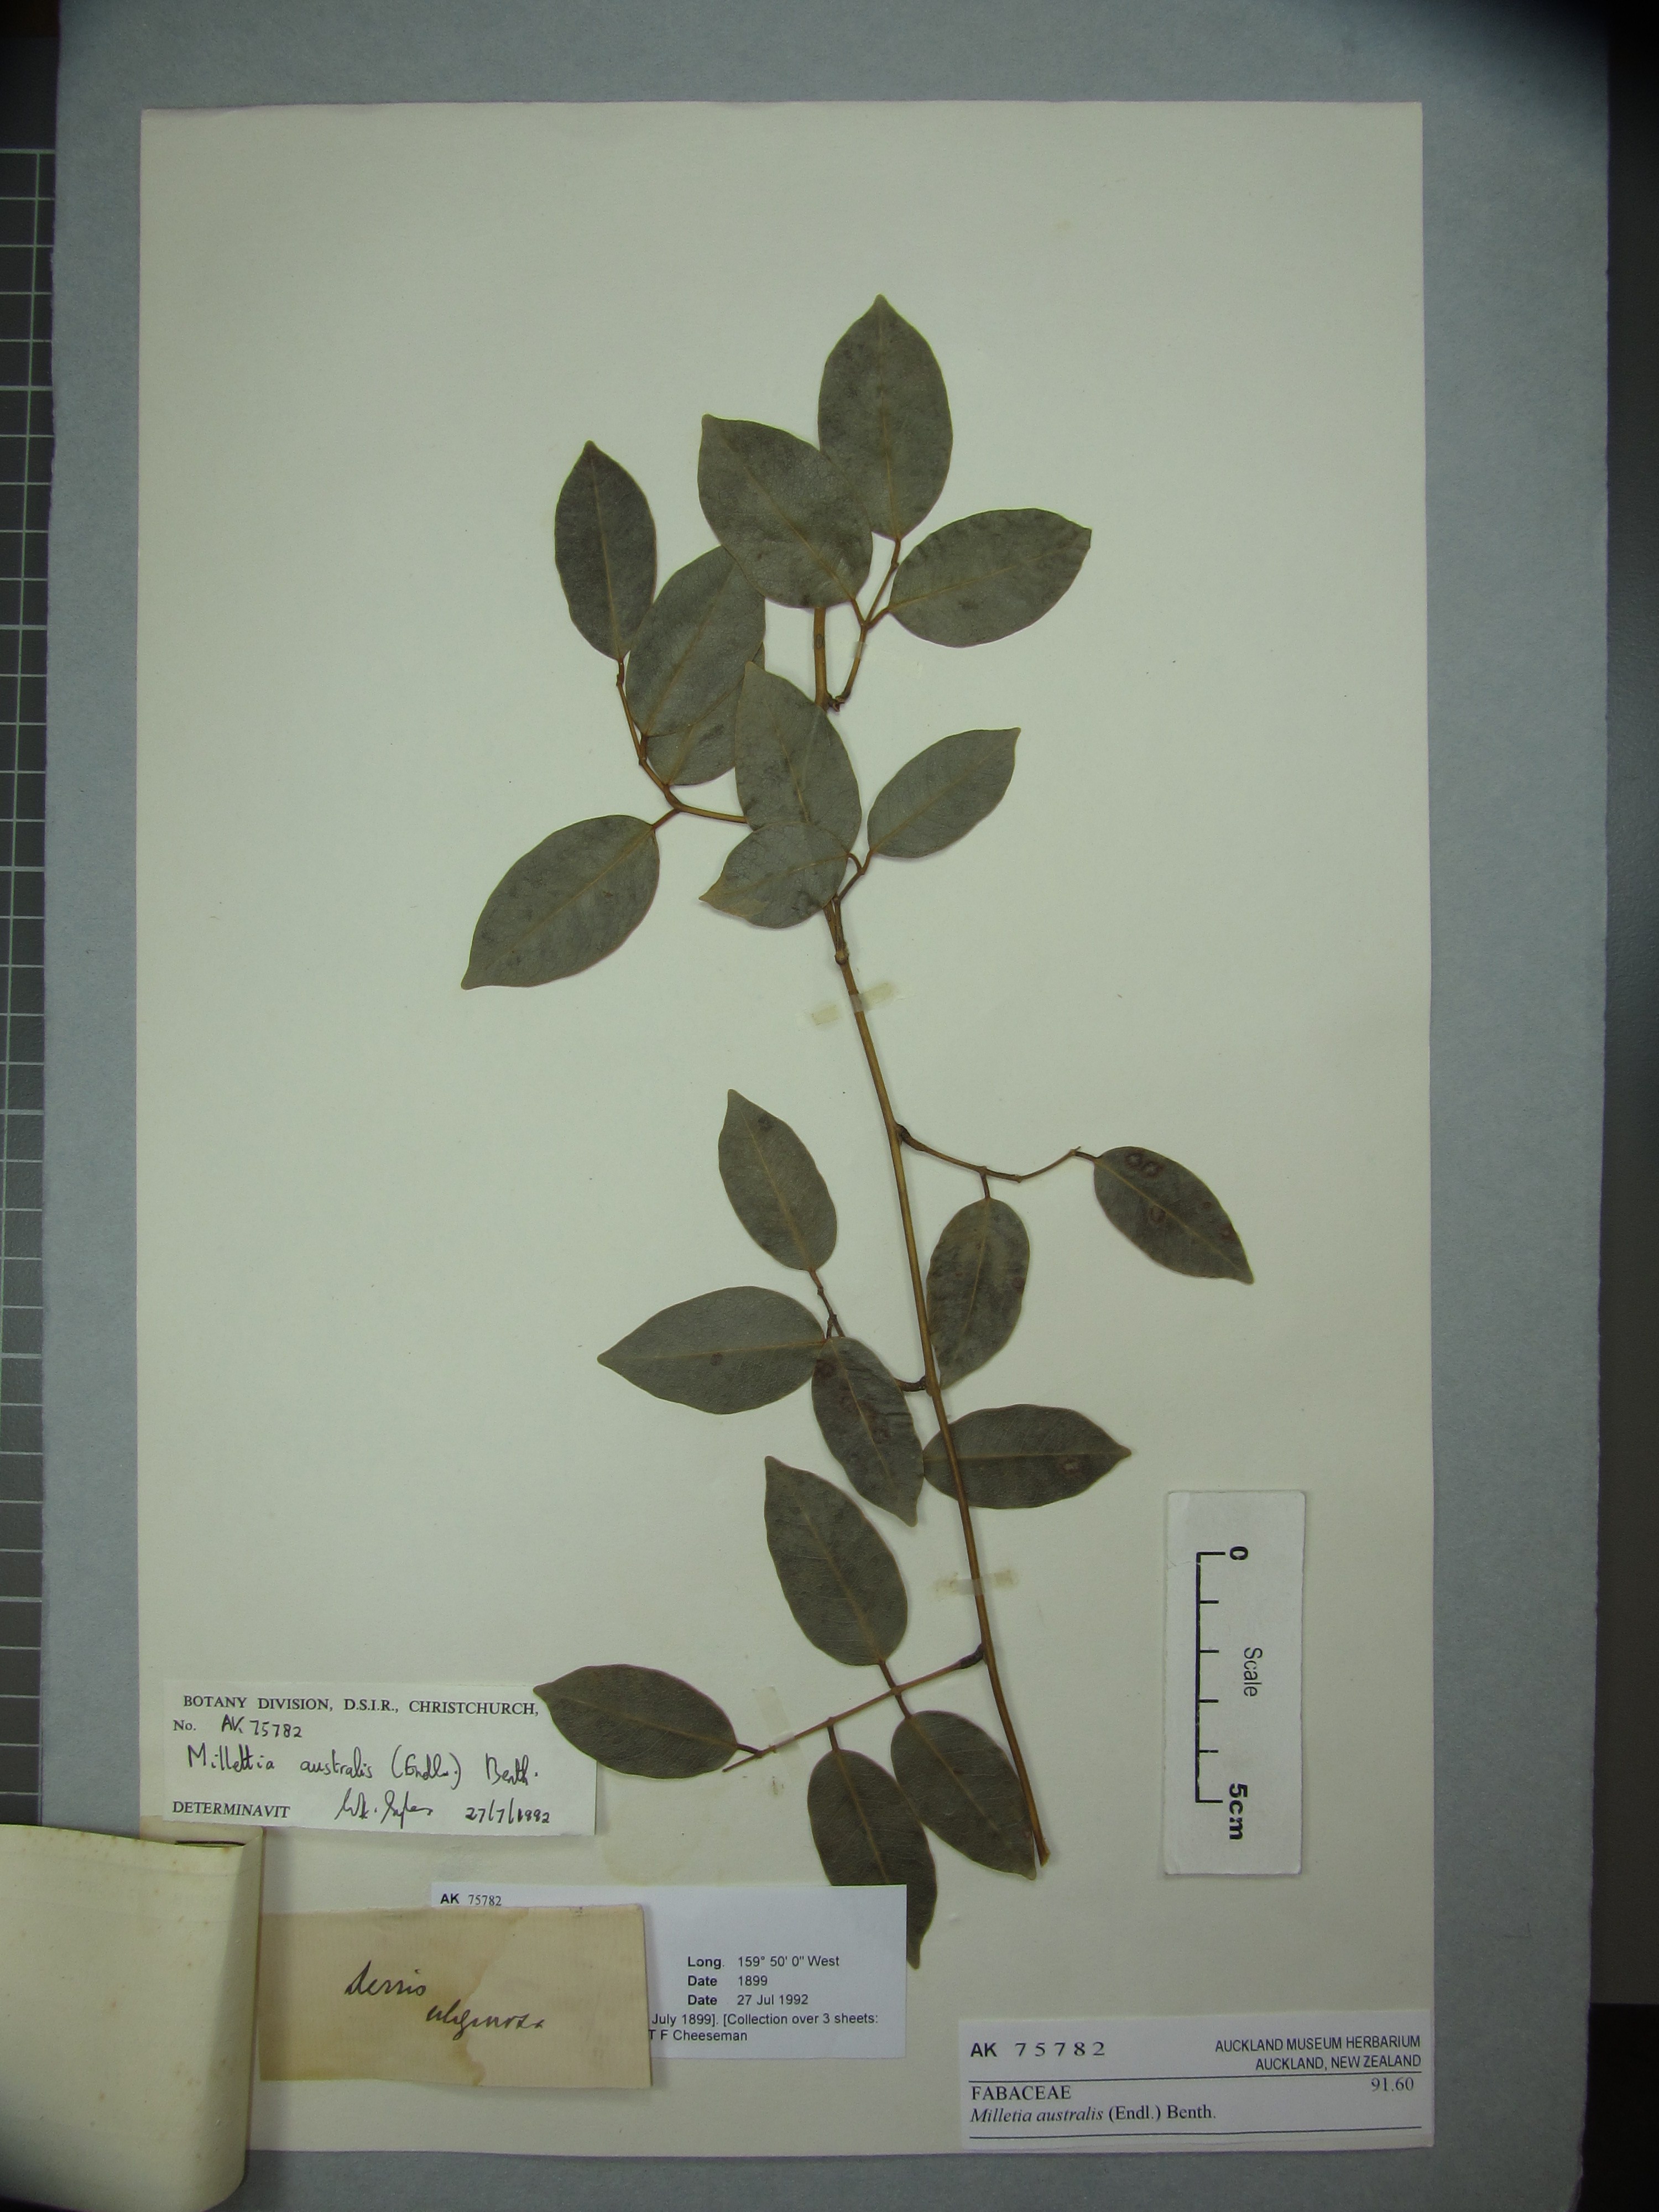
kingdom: Plantae
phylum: Tracheophyta
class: Magnoliopsida
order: Fabales
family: Fabaceae
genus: Austrocallerya
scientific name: Austrocallerya australis
